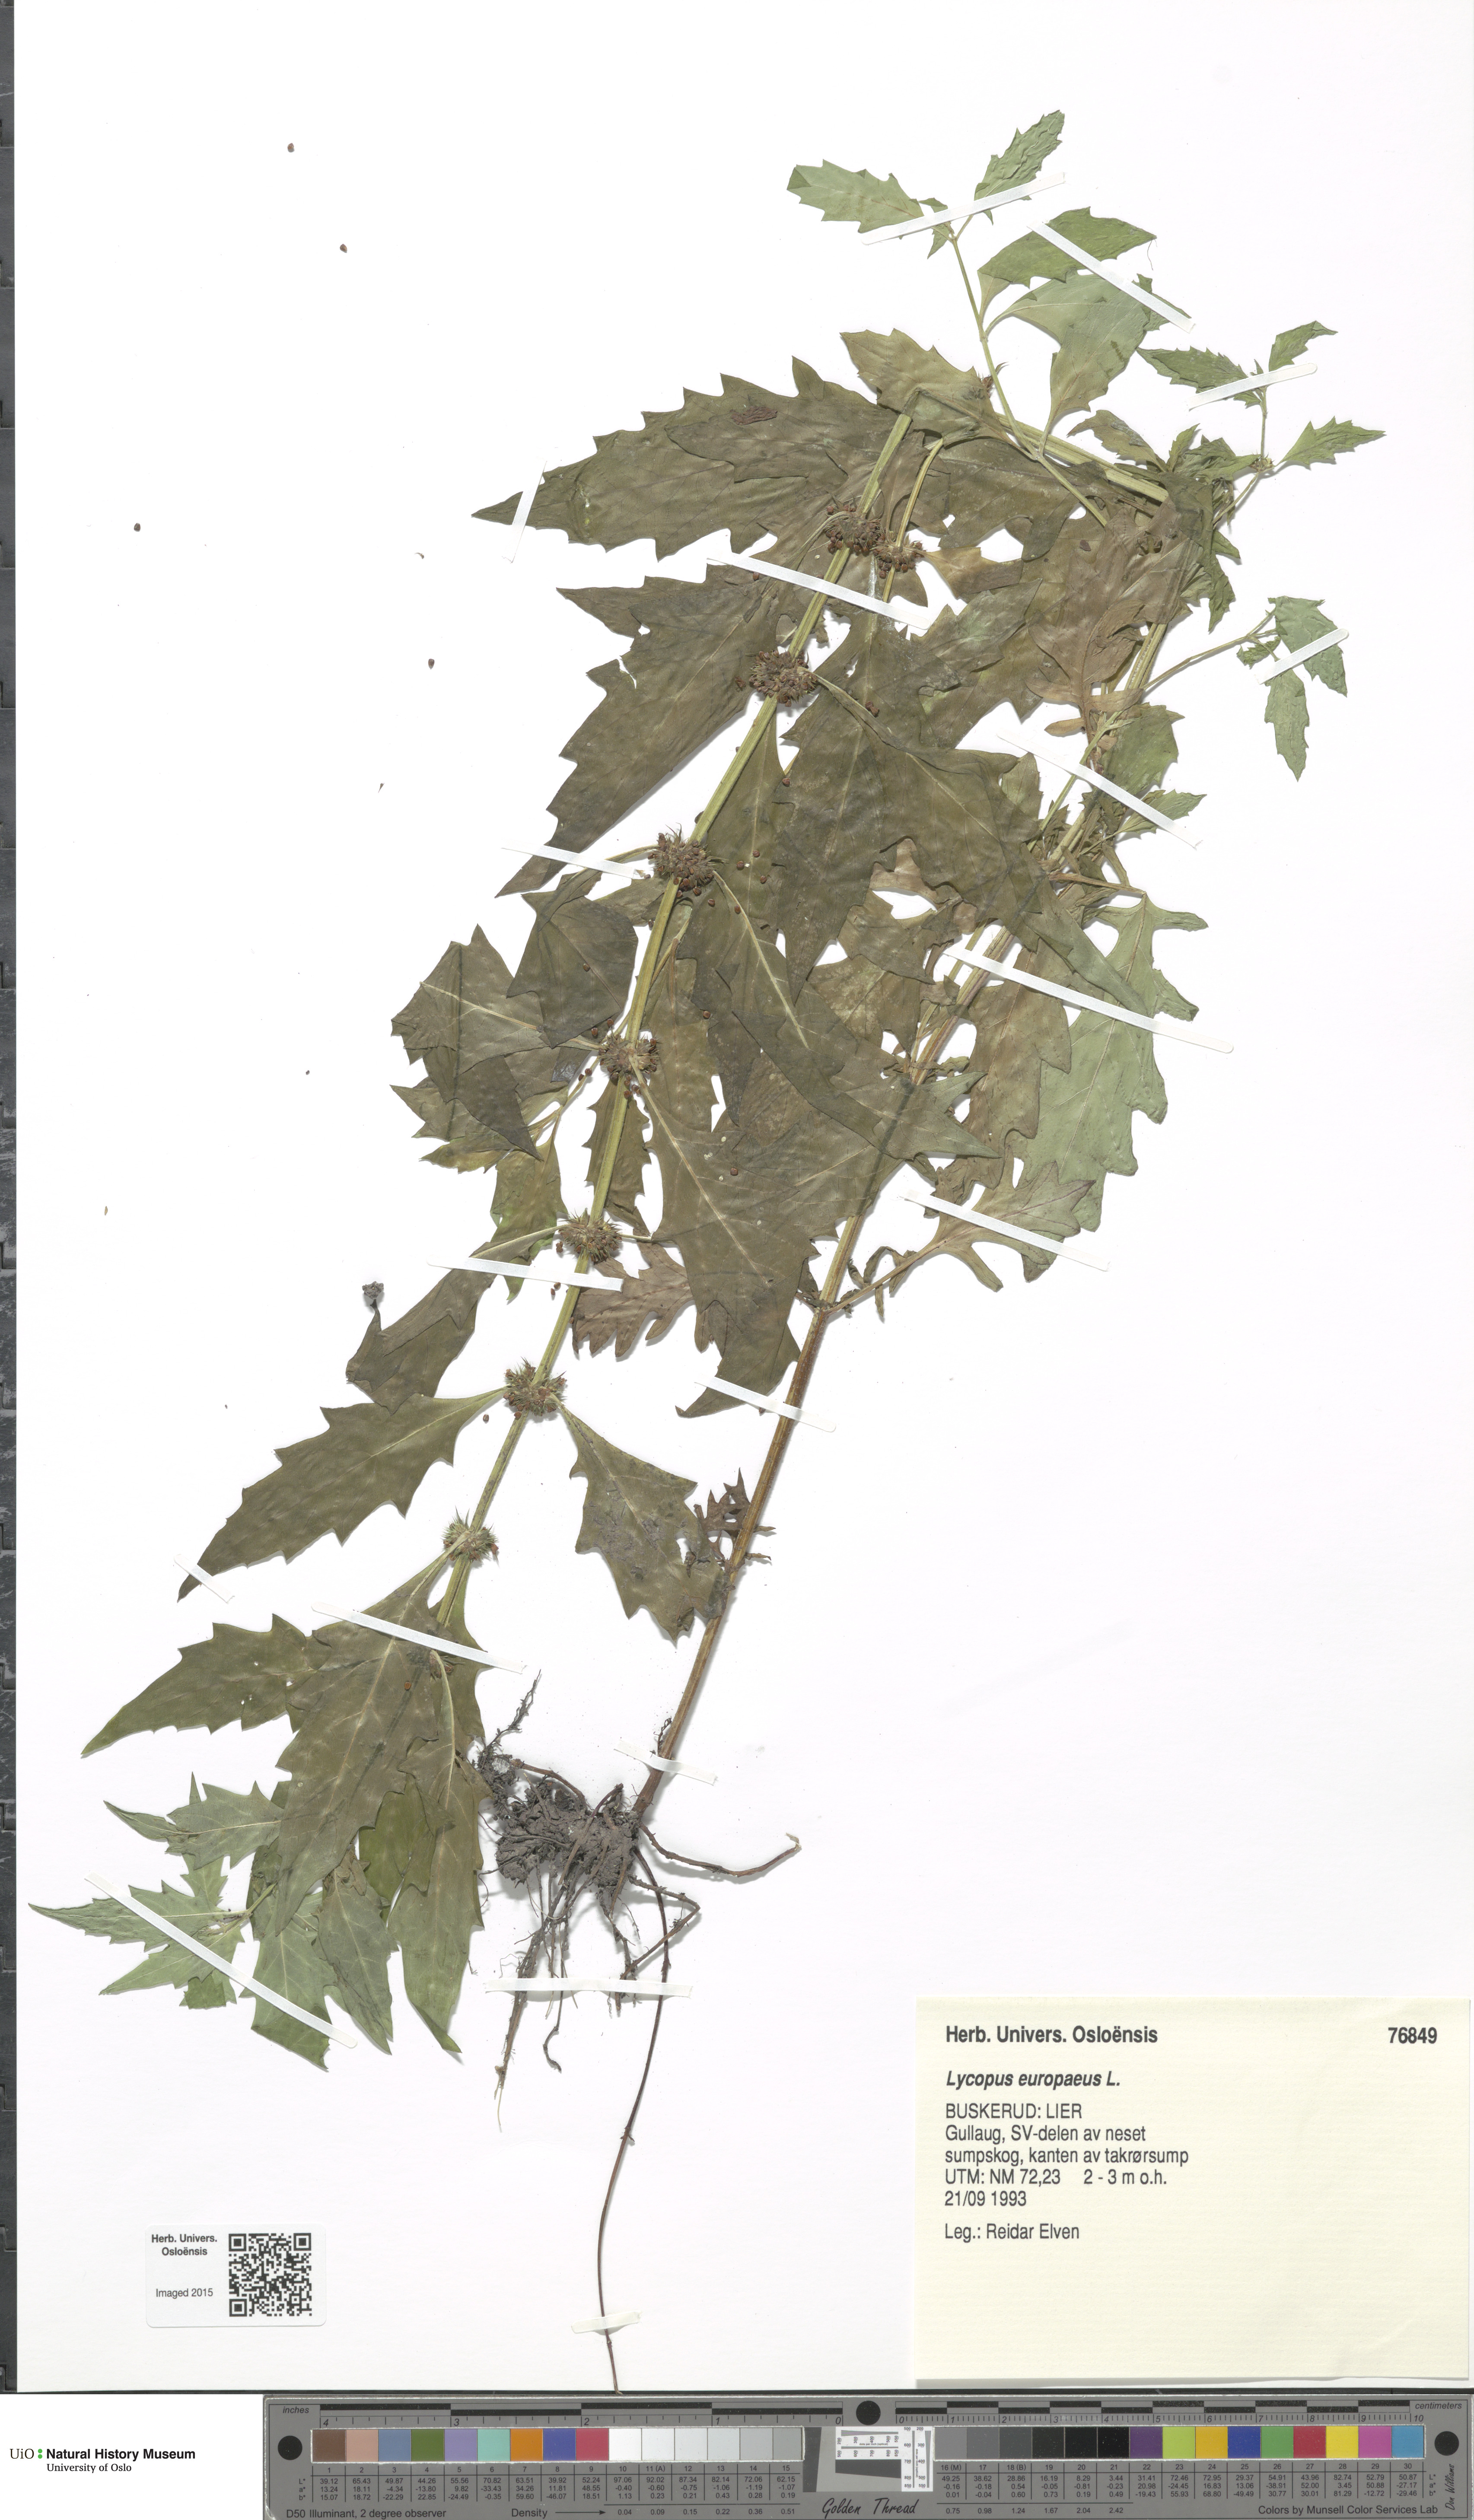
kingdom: Plantae
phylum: Tracheophyta
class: Magnoliopsida
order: Lamiales
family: Lamiaceae
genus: Lycopus
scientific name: Lycopus europaeus
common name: European bugleweed
